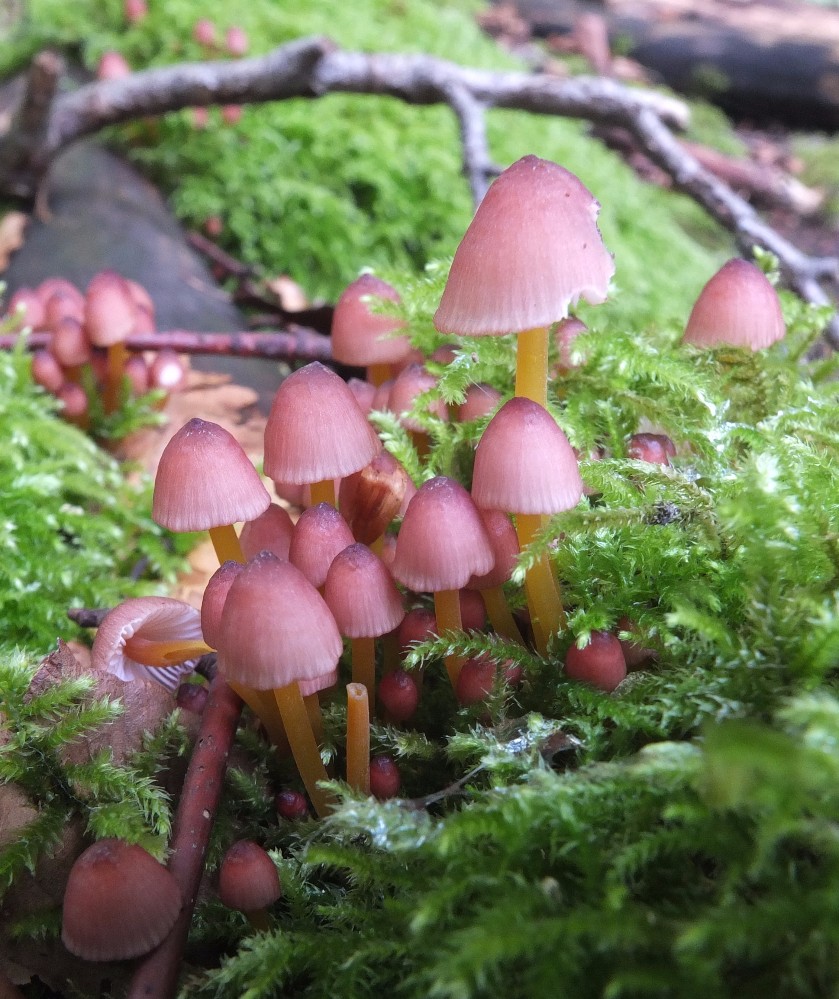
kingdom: Fungi
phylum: Basidiomycota
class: Agaricomycetes
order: Agaricales
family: Mycenaceae
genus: Mycena
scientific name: Mycena renati
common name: smuk huesvamp
